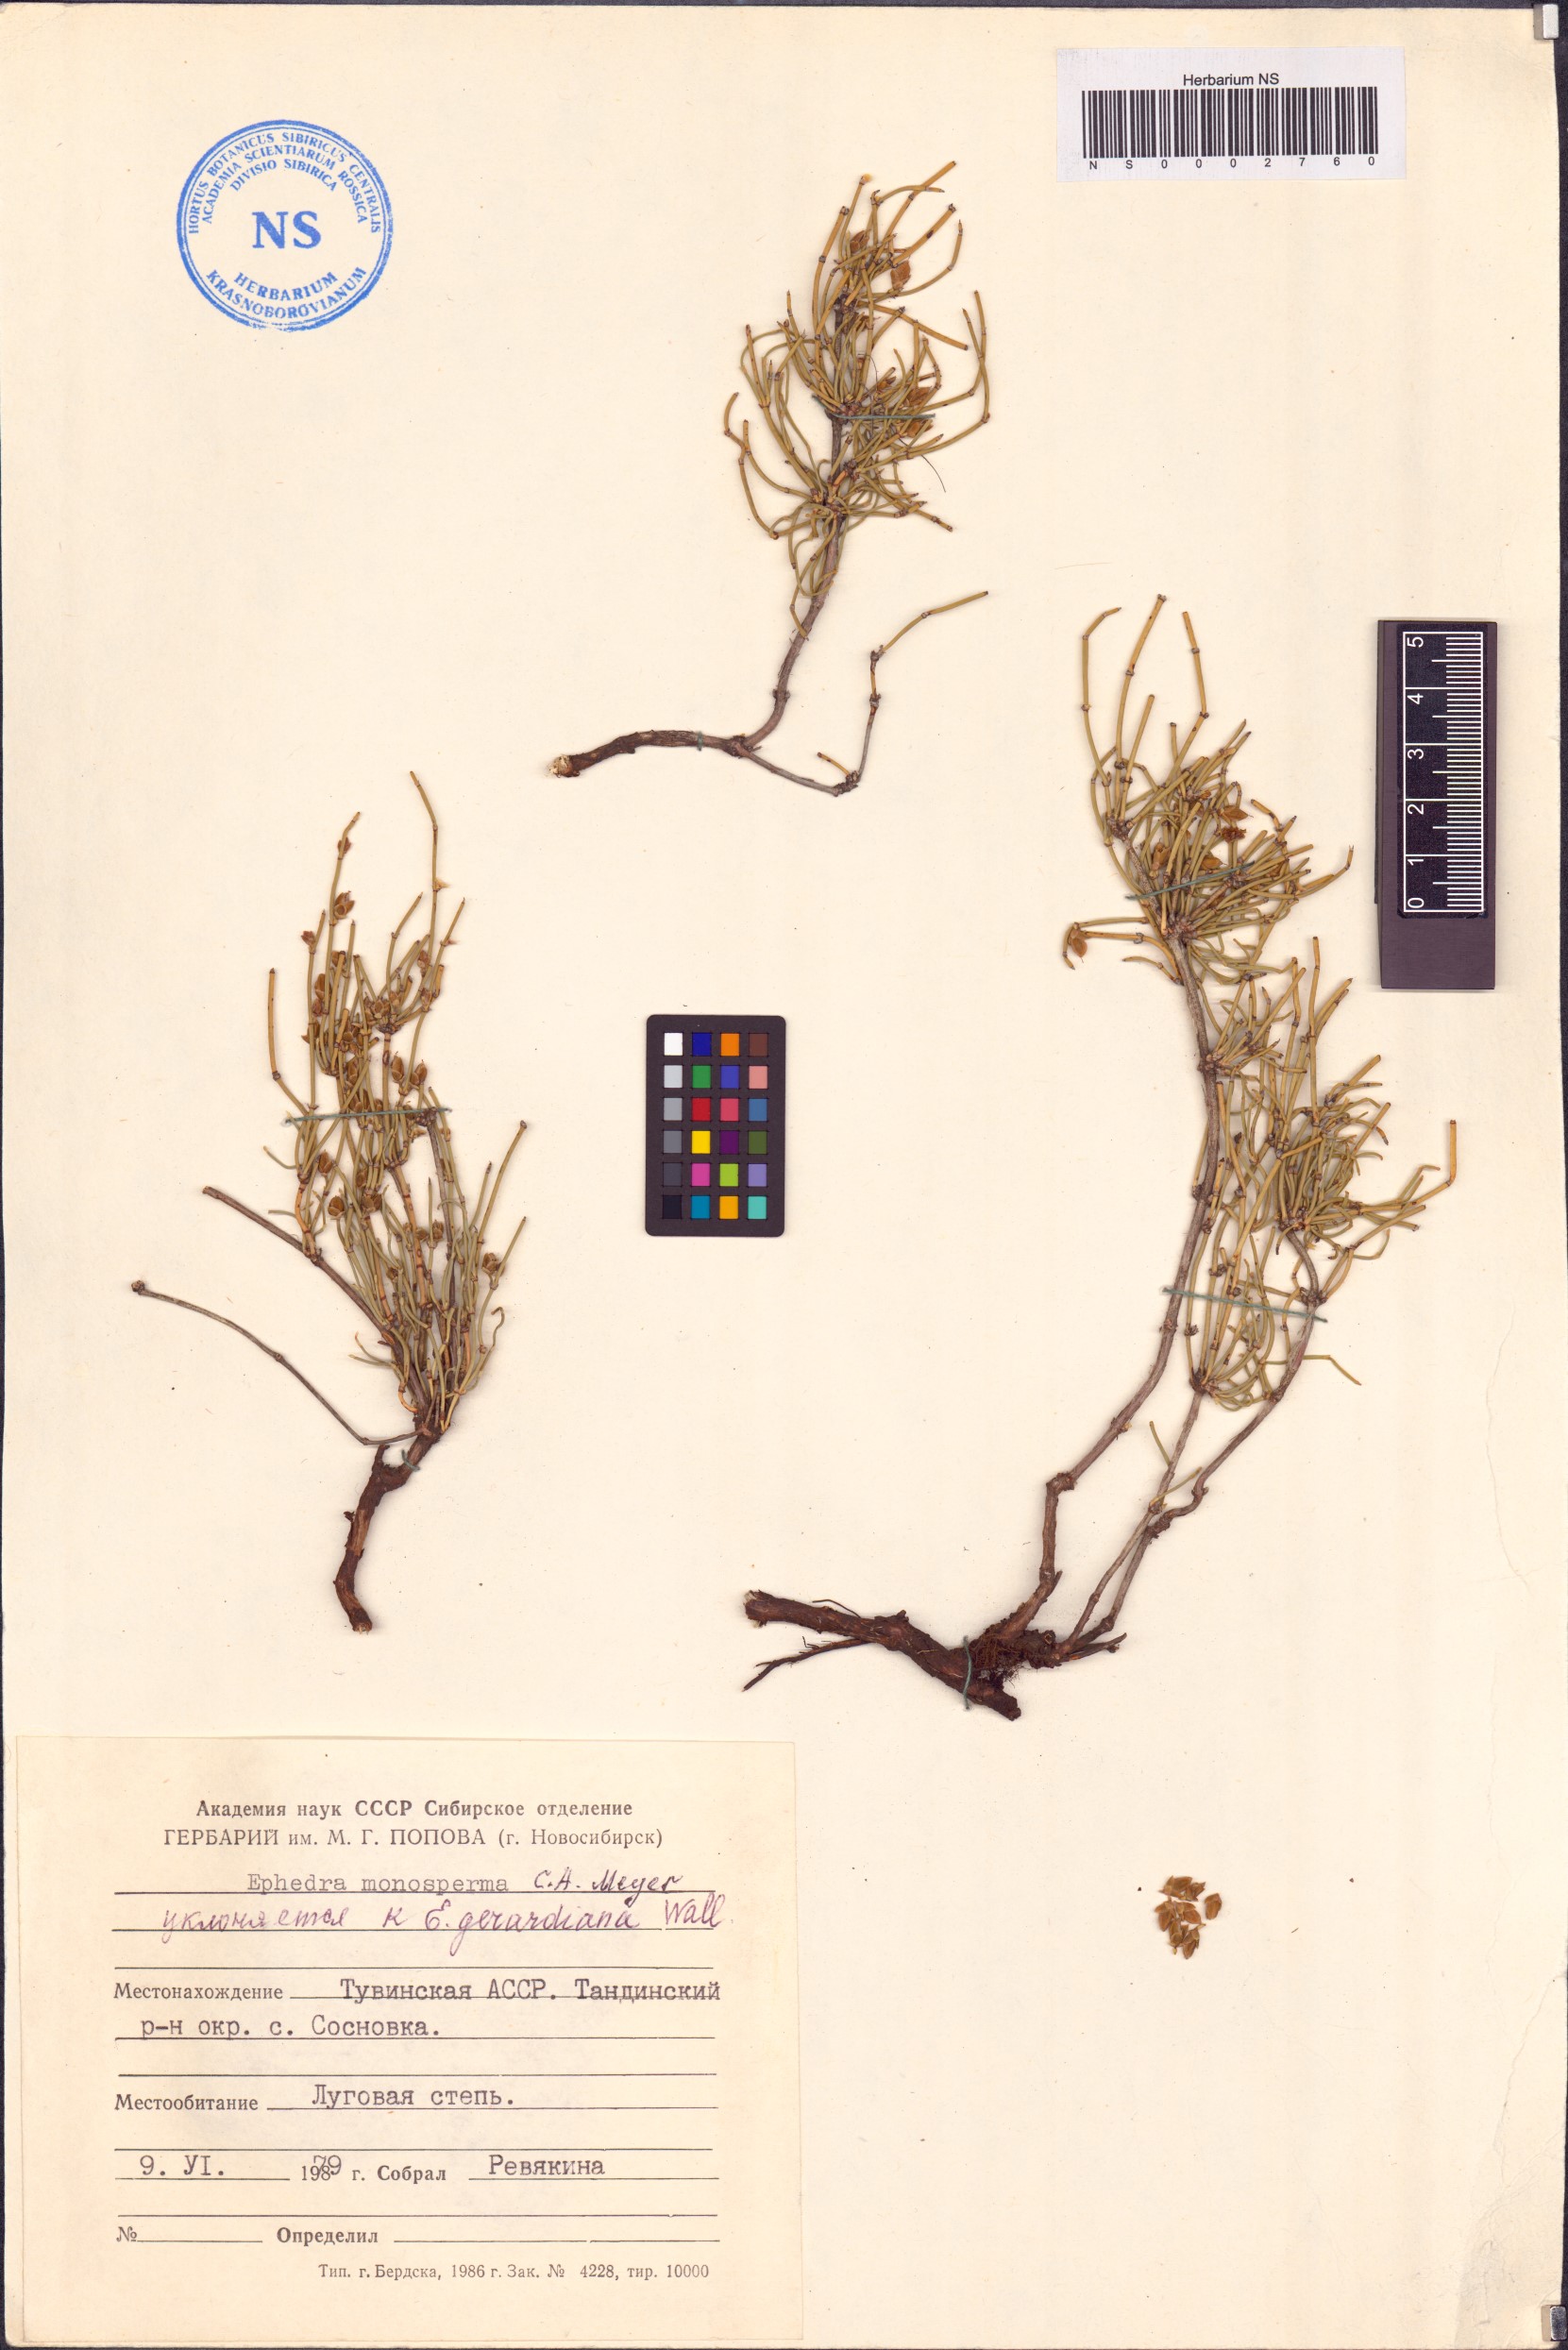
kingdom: Plantae
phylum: Tracheophyta
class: Gnetopsida
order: Ephedrales
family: Ephedraceae
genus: Ephedra
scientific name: Ephedra monosperma
